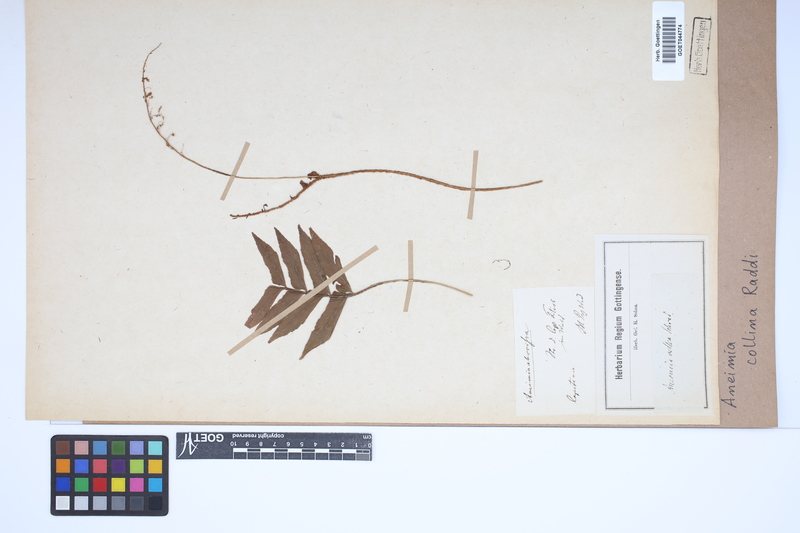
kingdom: Plantae
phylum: Tracheophyta
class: Polypodiopsida
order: Schizaeales
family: Anemiaceae
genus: Anemia
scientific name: Anemia collina
